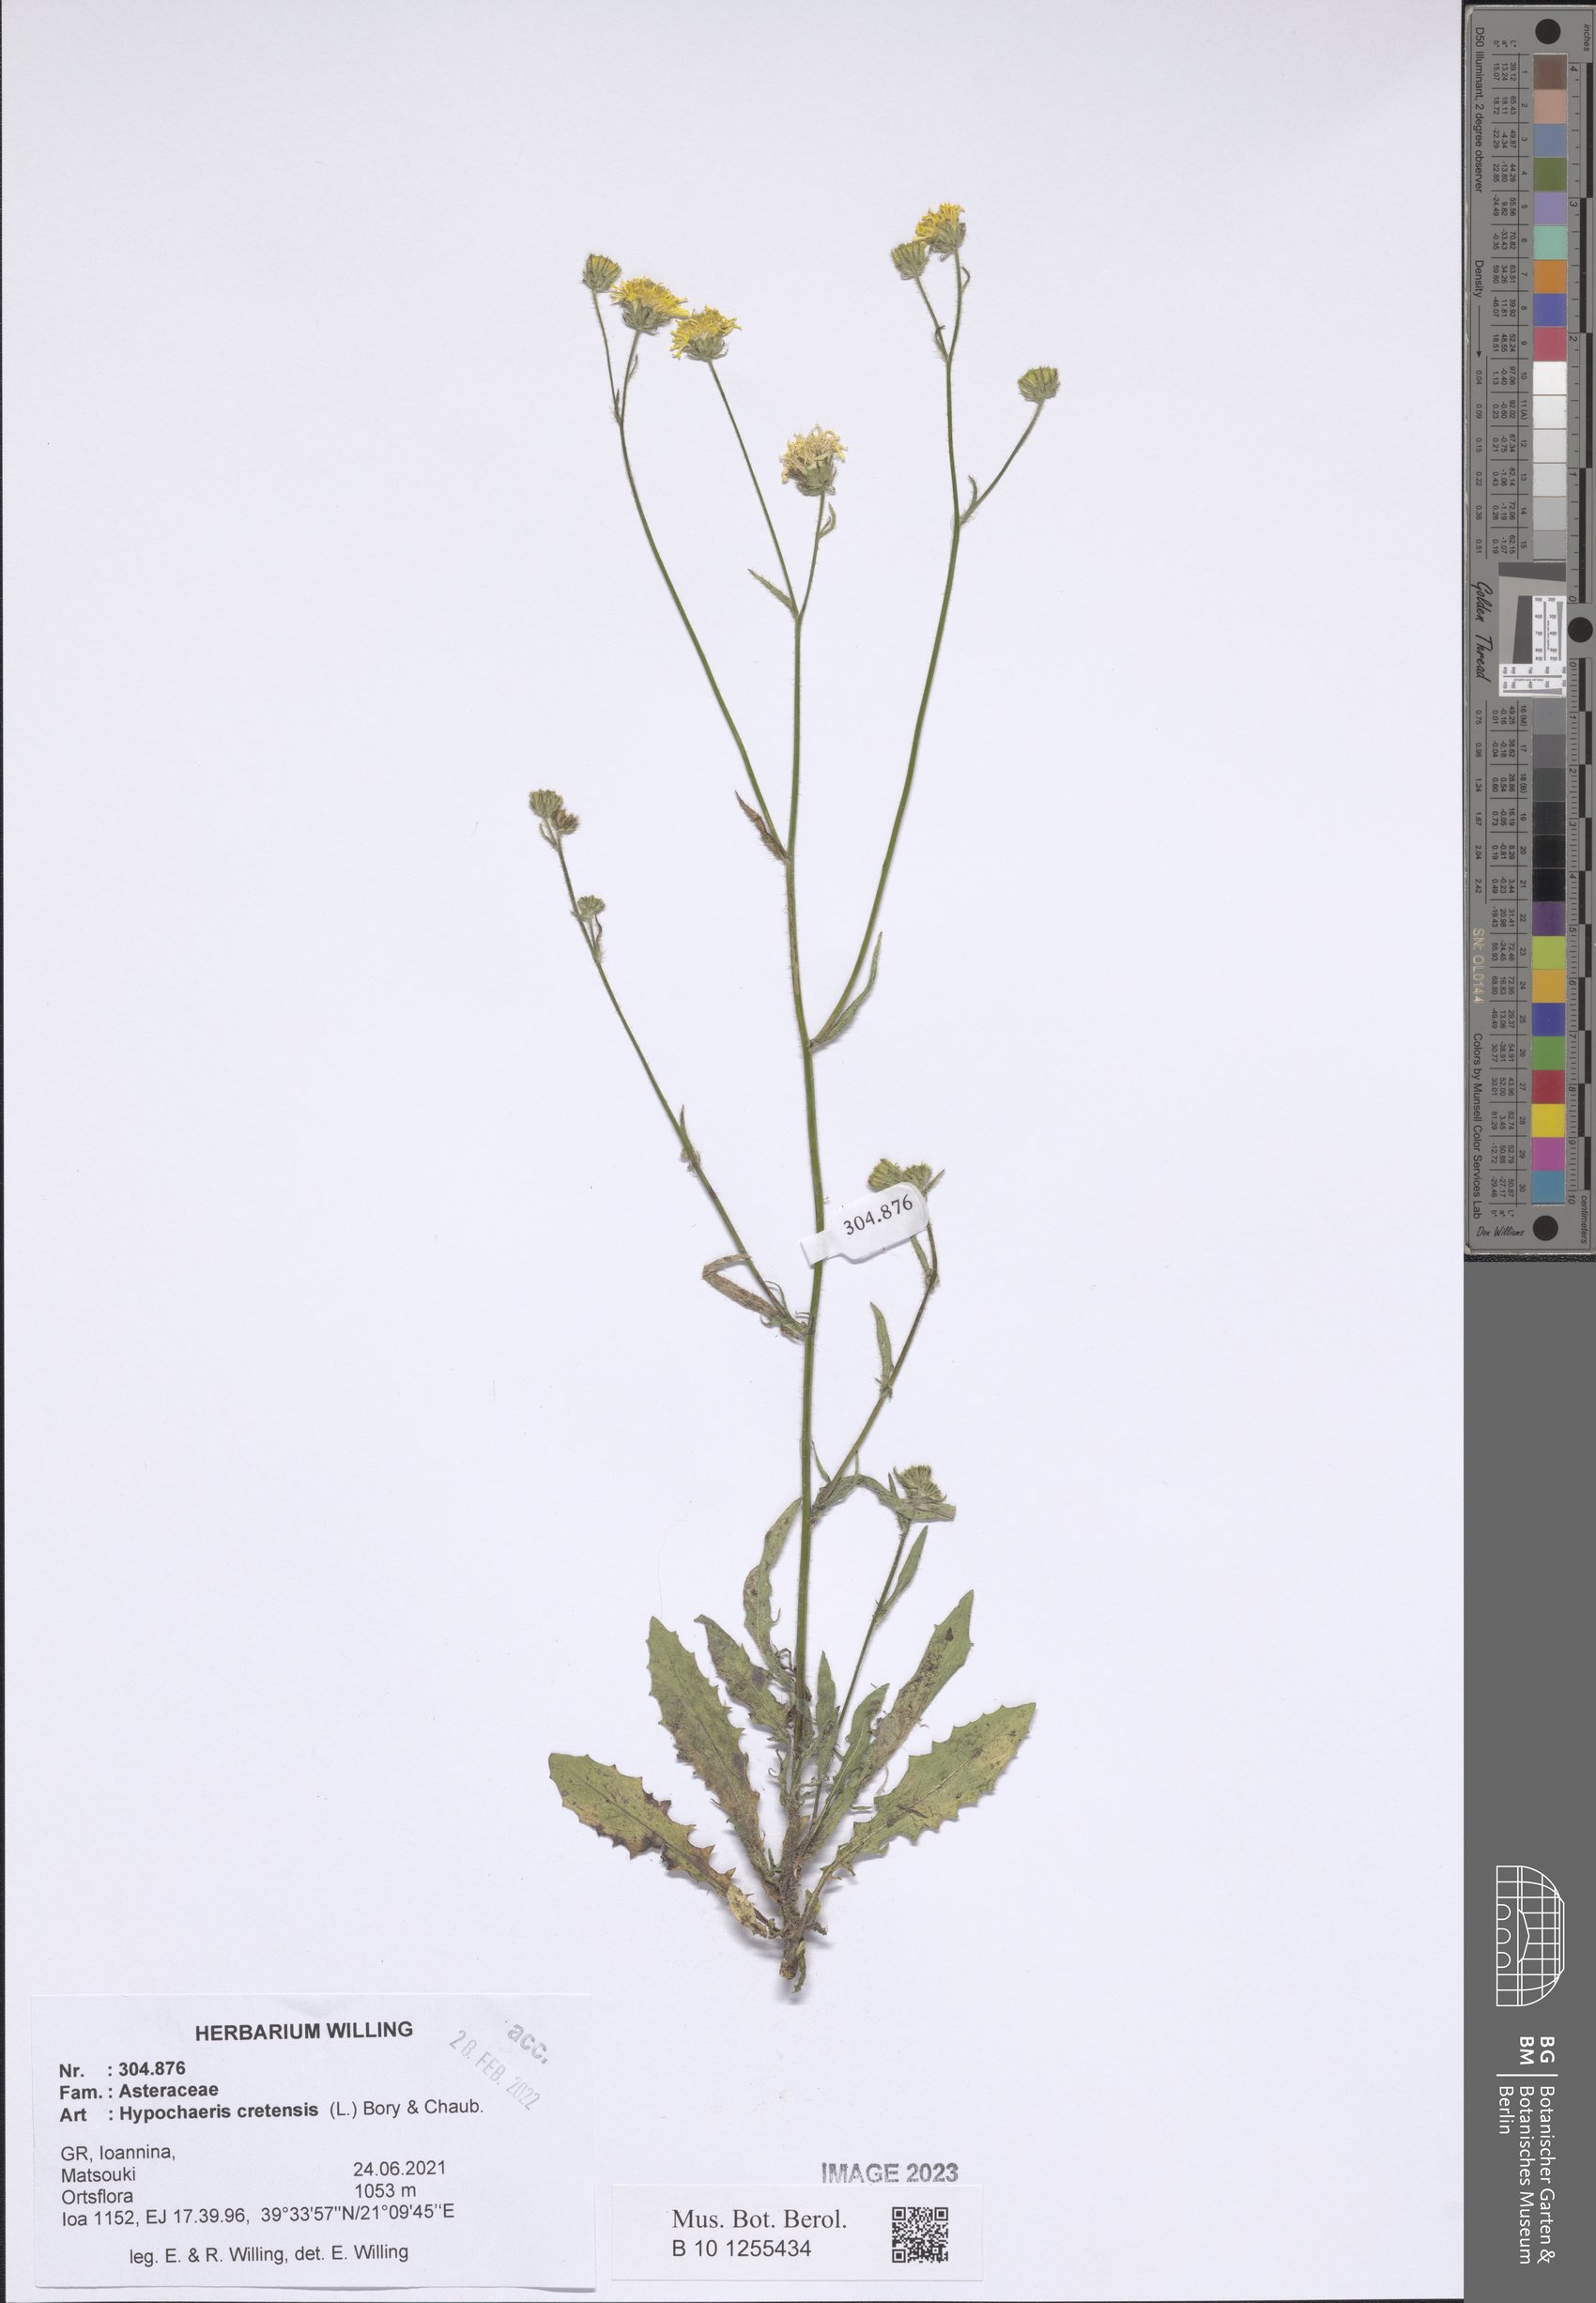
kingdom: Plantae
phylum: Tracheophyta
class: Magnoliopsida
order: Asterales
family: Asteraceae
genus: Hypochaeris
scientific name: Hypochaeris cretensis
